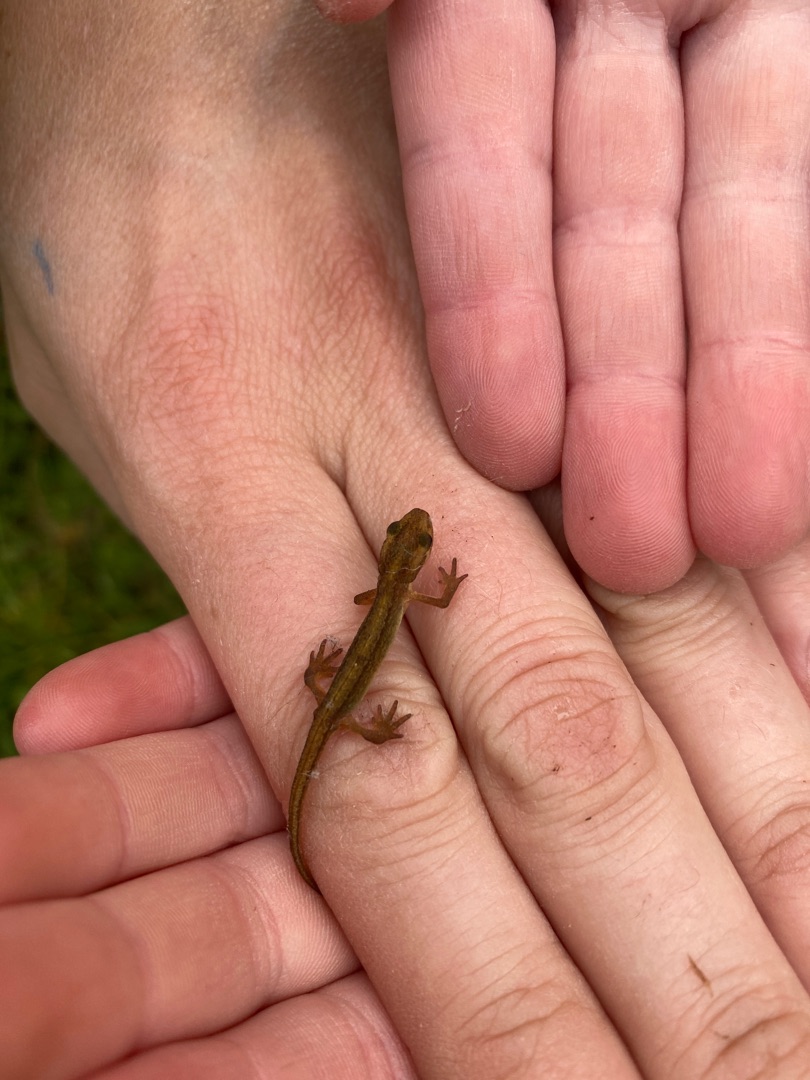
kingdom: Animalia
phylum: Chordata
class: Amphibia
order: Caudata
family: Salamandridae
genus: Lissotriton
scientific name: Lissotriton vulgaris
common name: Lille vandsalamander
